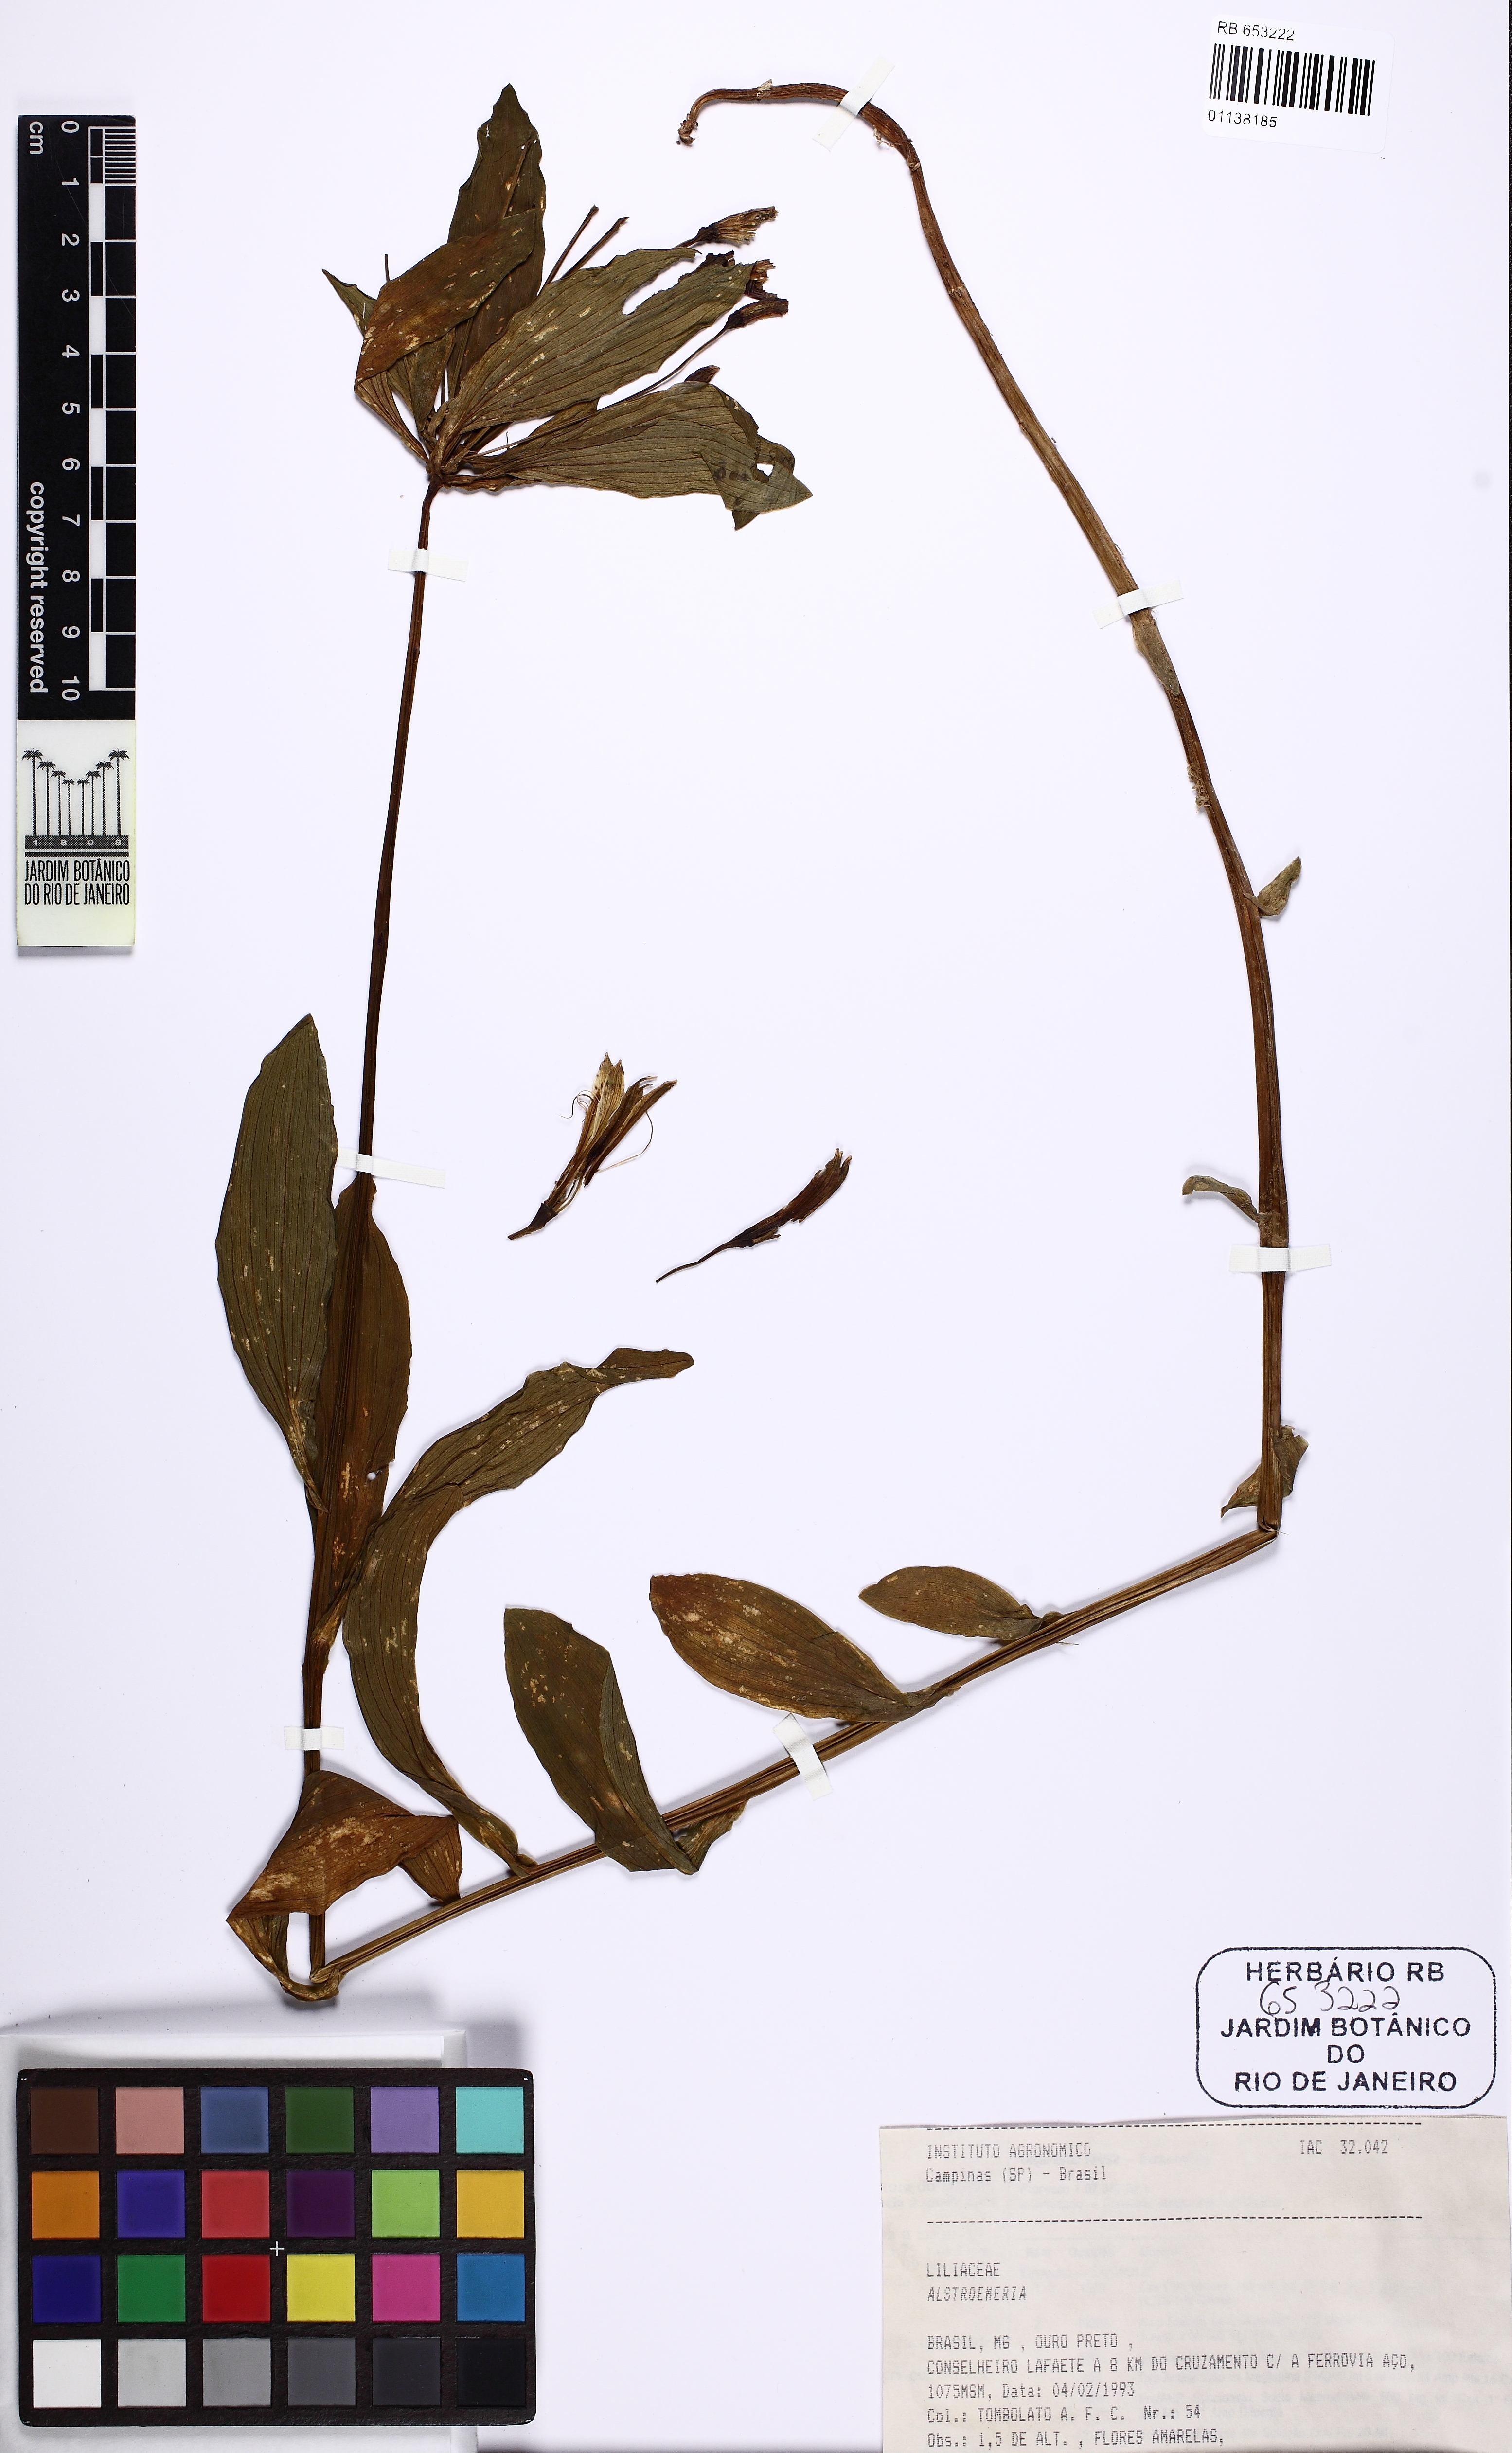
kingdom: Plantae
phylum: Tracheophyta
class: Liliopsida
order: Liliales
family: Alstroemeriaceae
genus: Alstroemeria
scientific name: Alstroemeria
